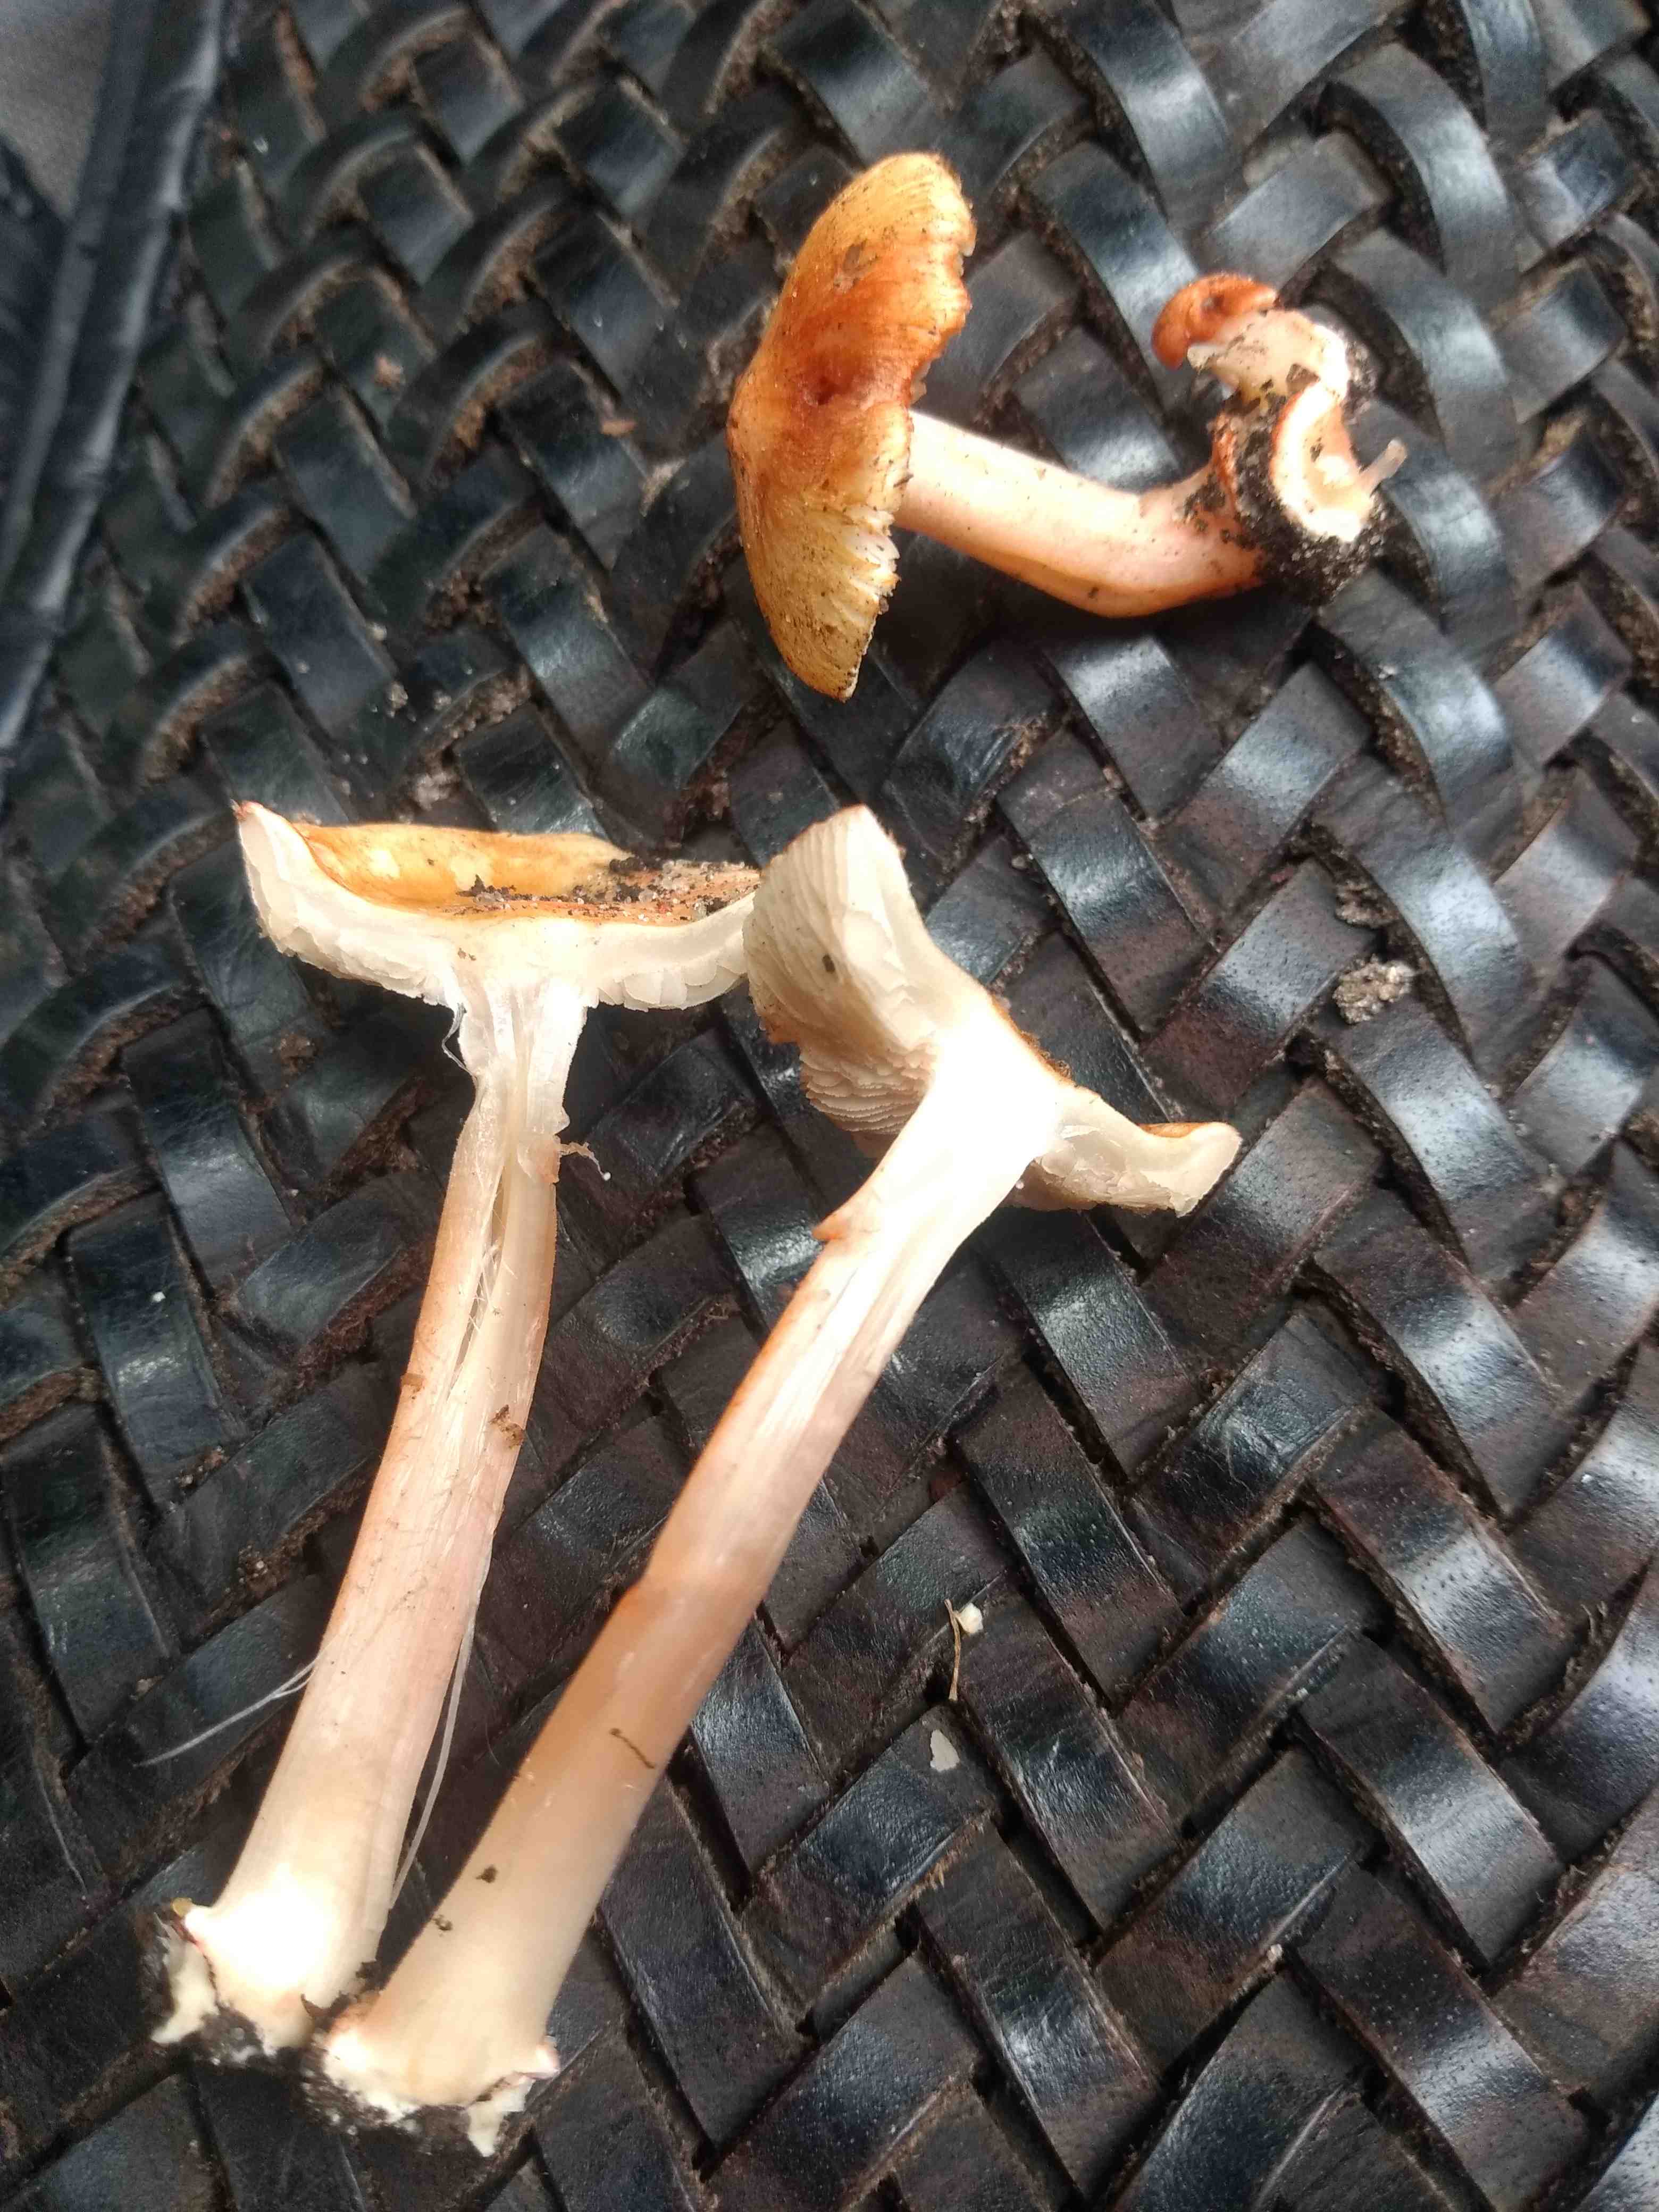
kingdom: Fungi
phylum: Basidiomycota
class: Agaricomycetes
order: Agaricales
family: Inocybaceae
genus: Inocybe
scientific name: Inocybe godeyi
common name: orangerødmende trævlhat
